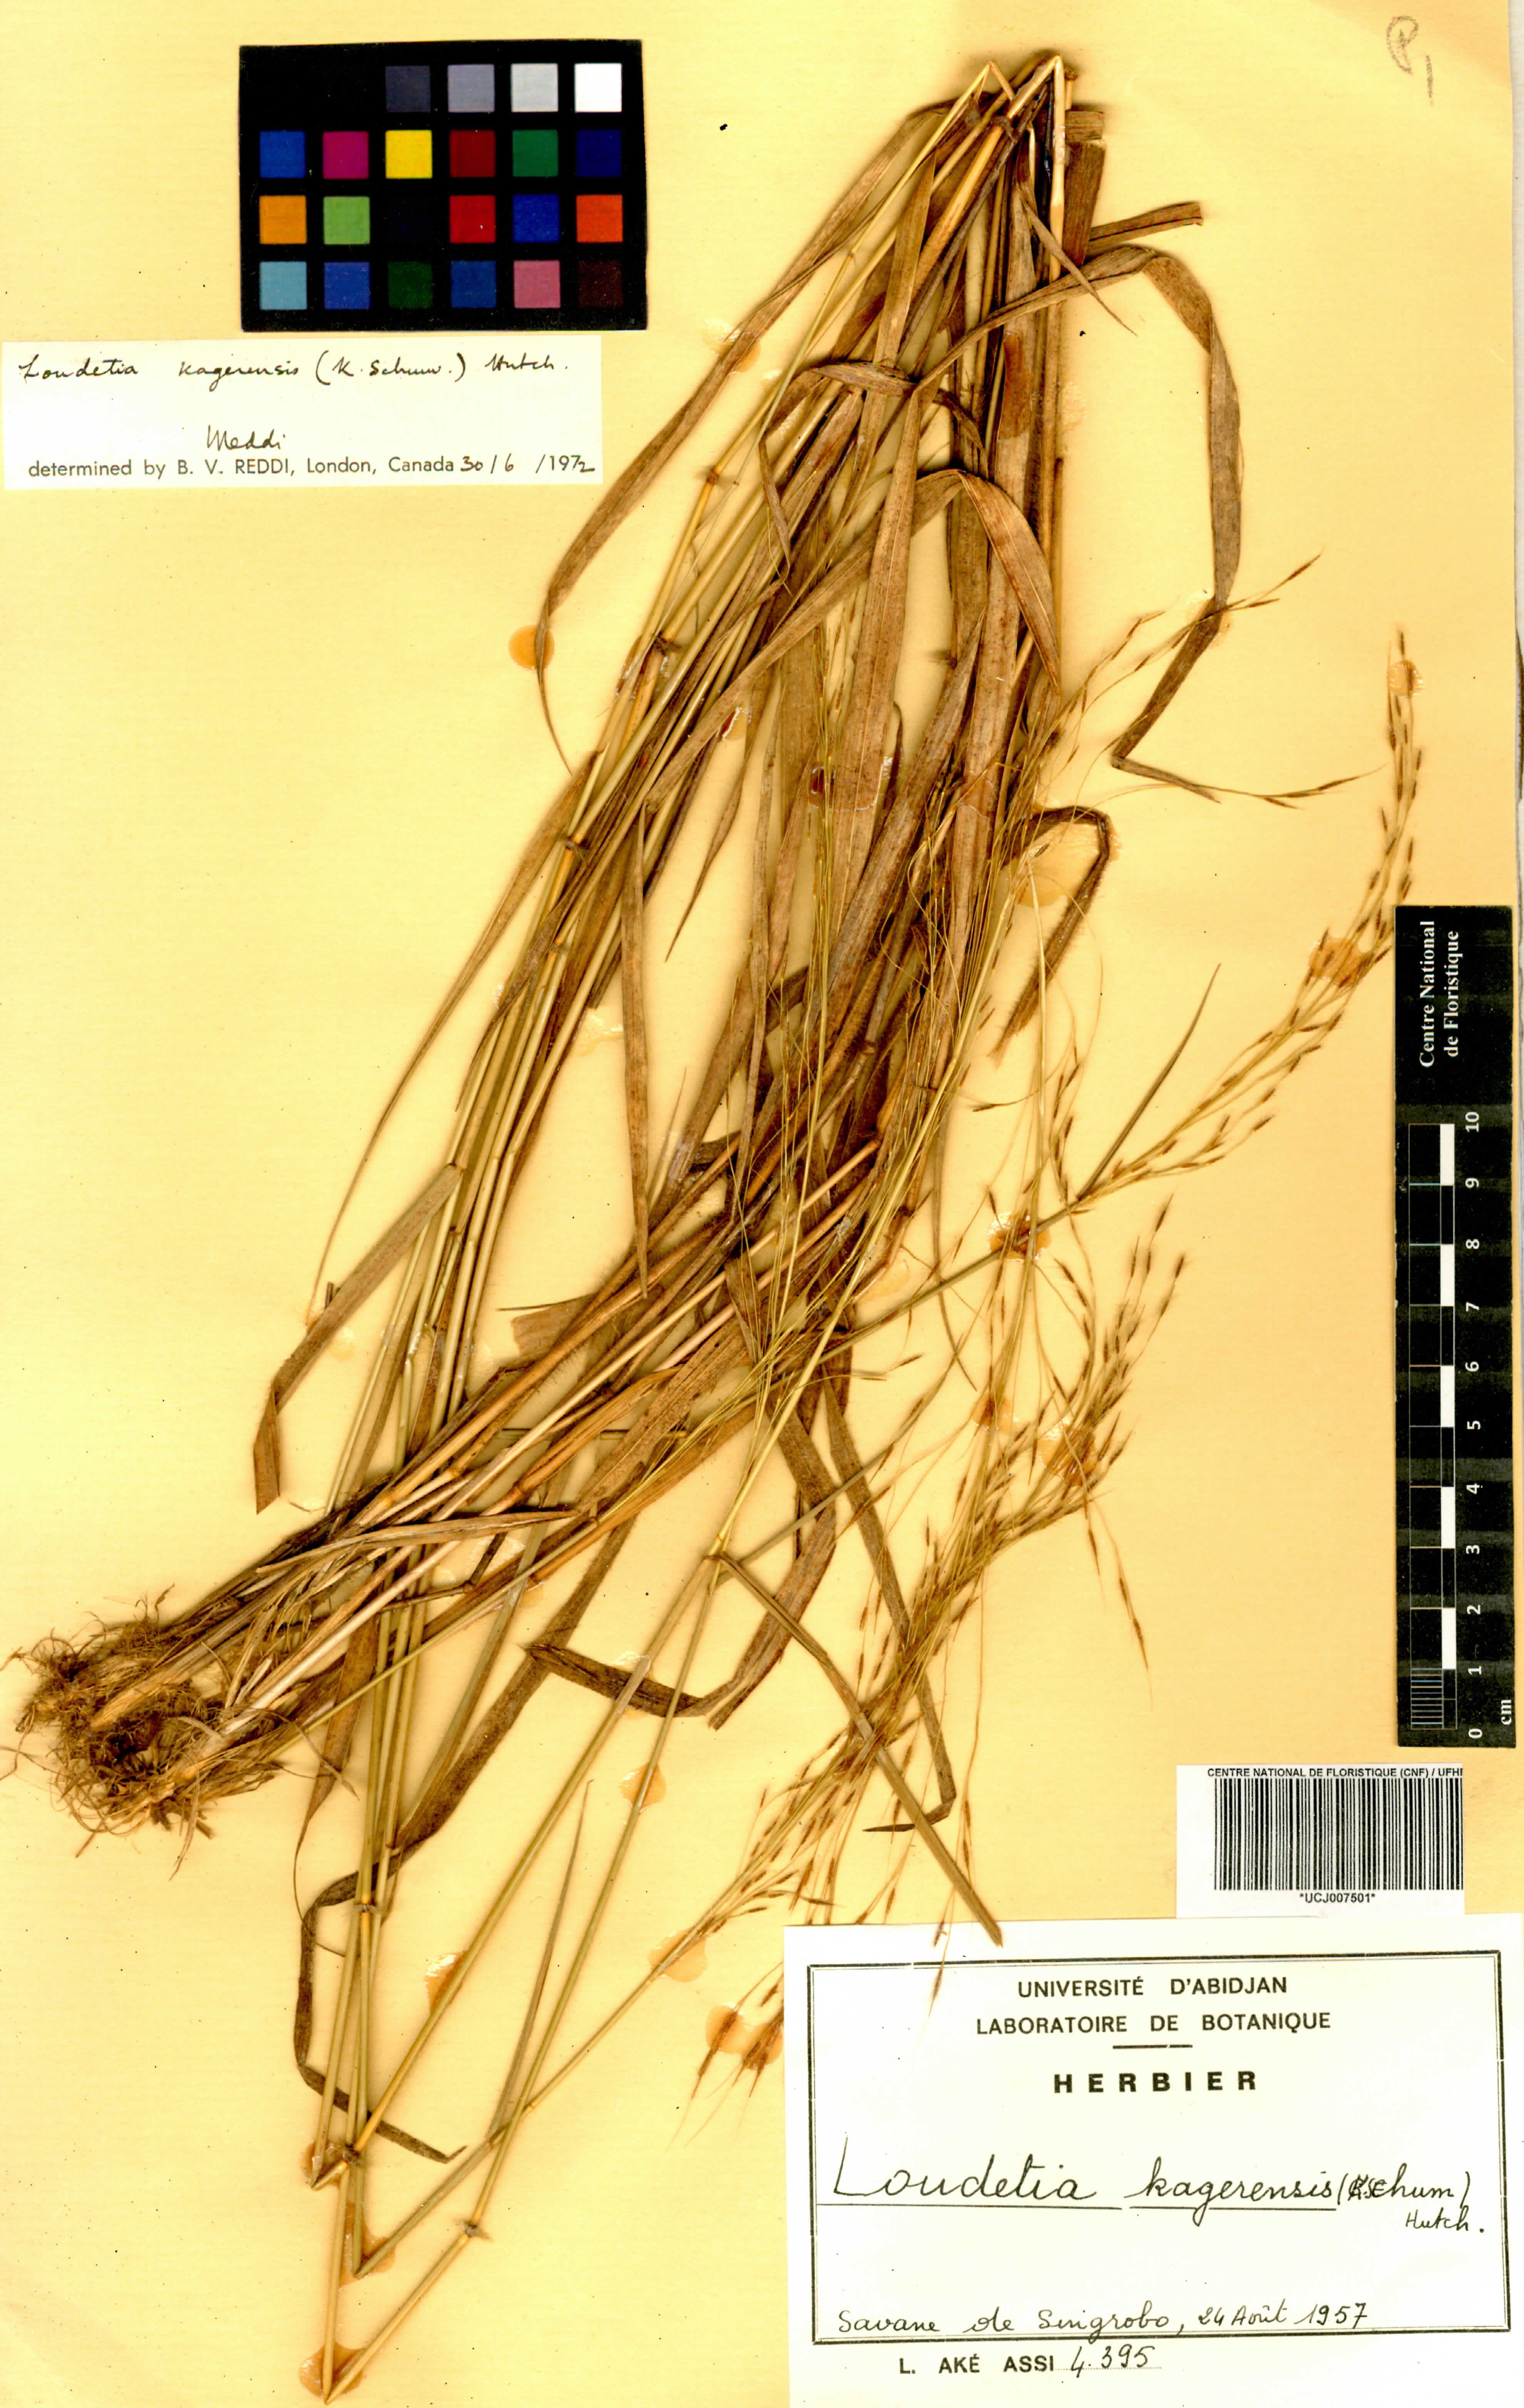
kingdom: Plantae
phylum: Tracheophyta
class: Liliopsida
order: Poales
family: Poaceae
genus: Loudetia
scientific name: Loudetia kagerensis
